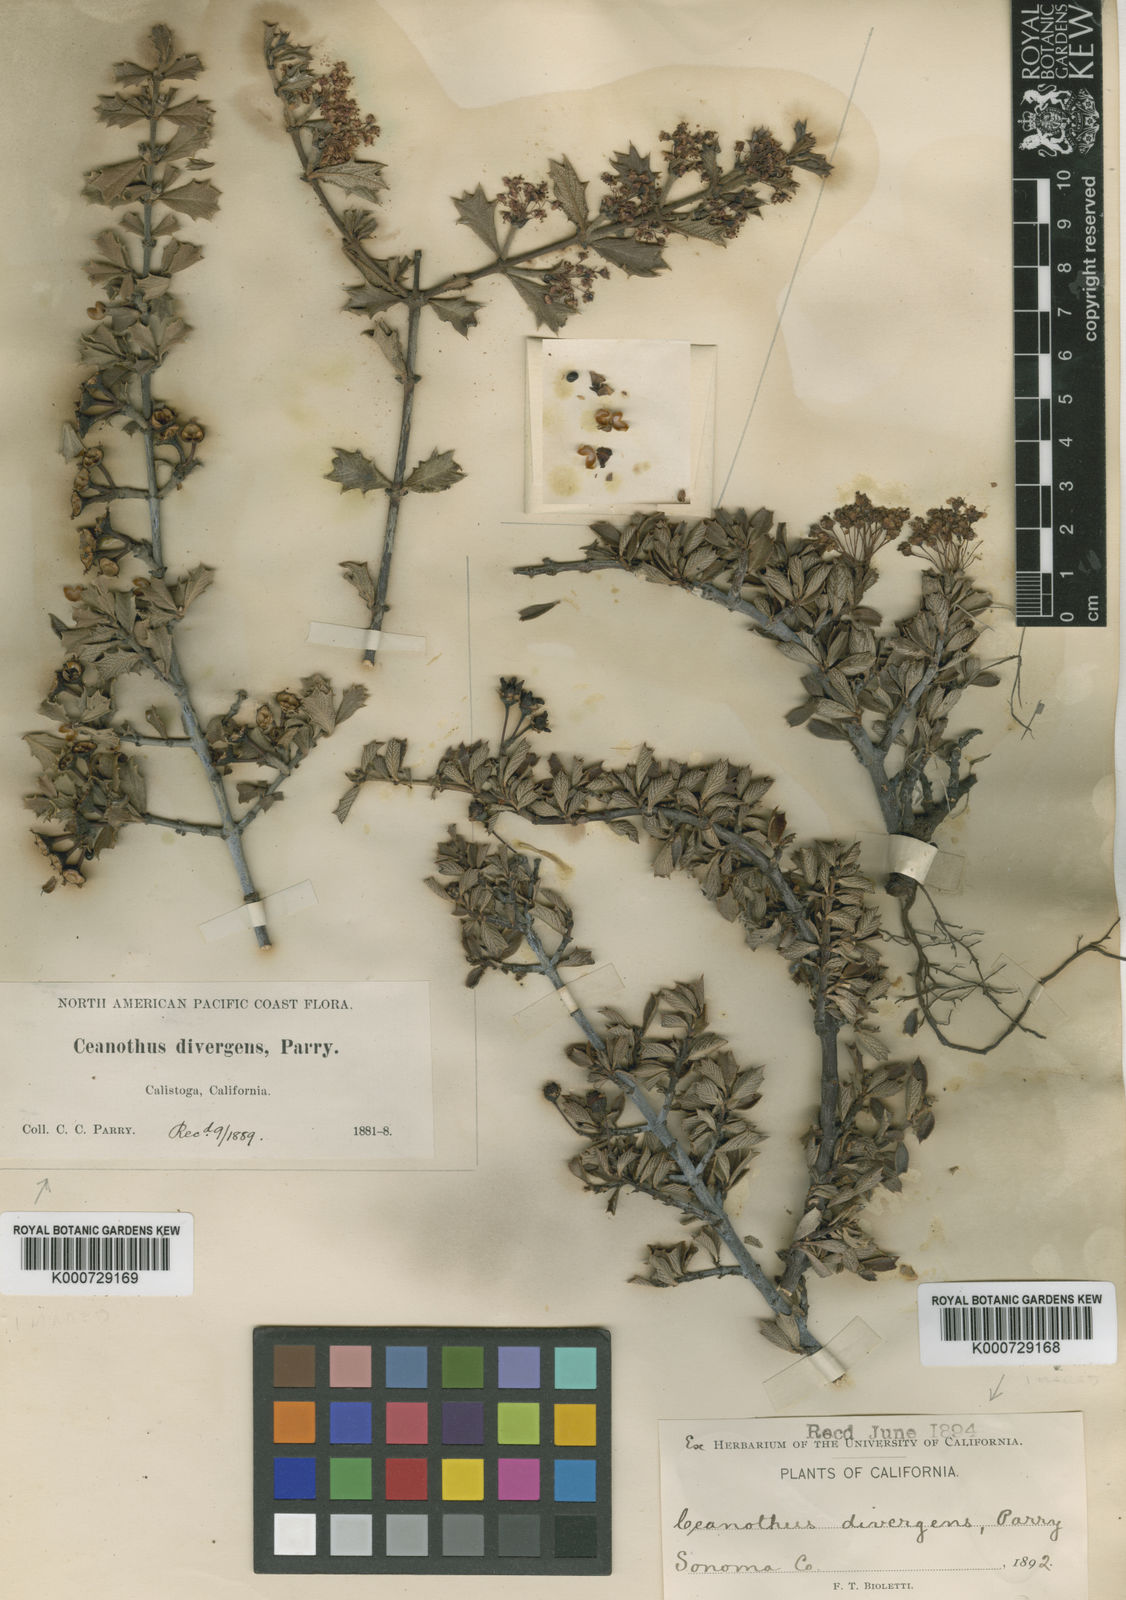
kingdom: Plantae
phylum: Tracheophyta
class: Magnoliopsida
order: Rosales
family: Rhamnaceae
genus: Ceanothus
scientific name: Ceanothus divergens
